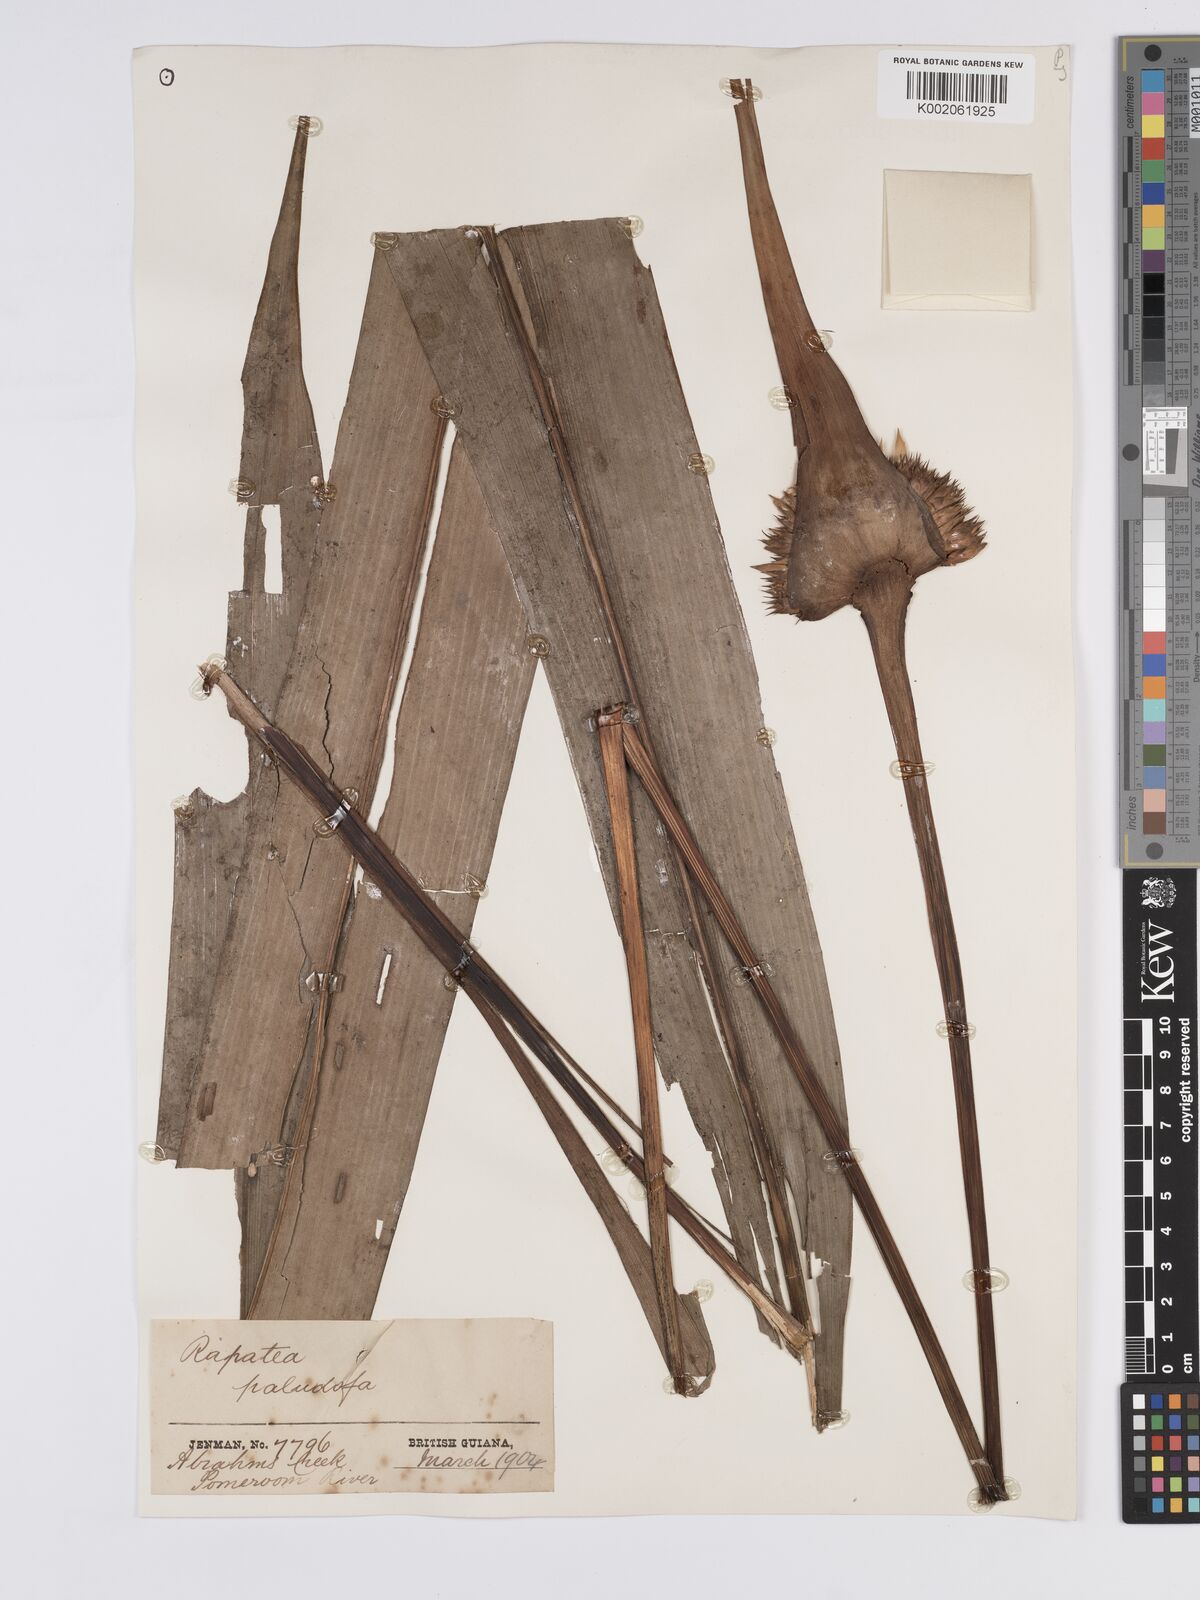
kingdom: Plantae
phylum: Tracheophyta
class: Liliopsida
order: Poales
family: Rapateaceae
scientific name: Rapateaceae
